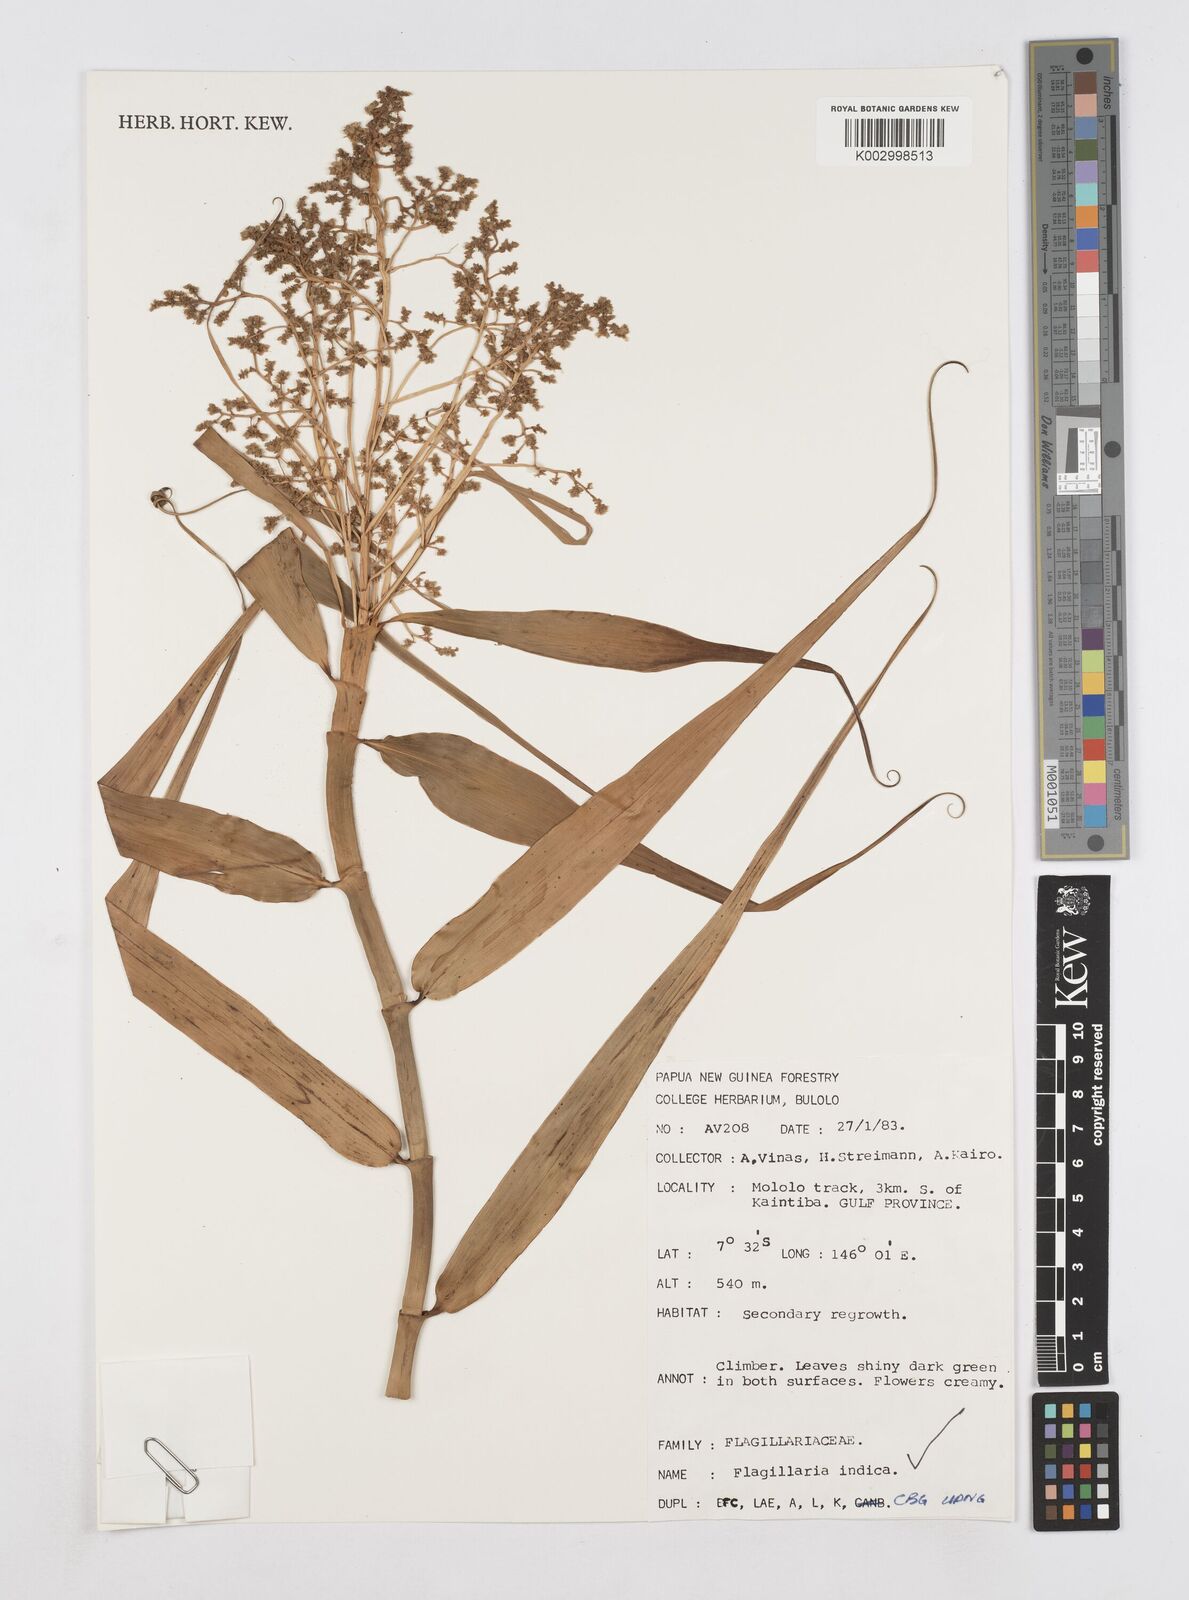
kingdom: Plantae
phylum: Tracheophyta
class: Liliopsida
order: Poales
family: Flagellariaceae
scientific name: Flagellariaceae
